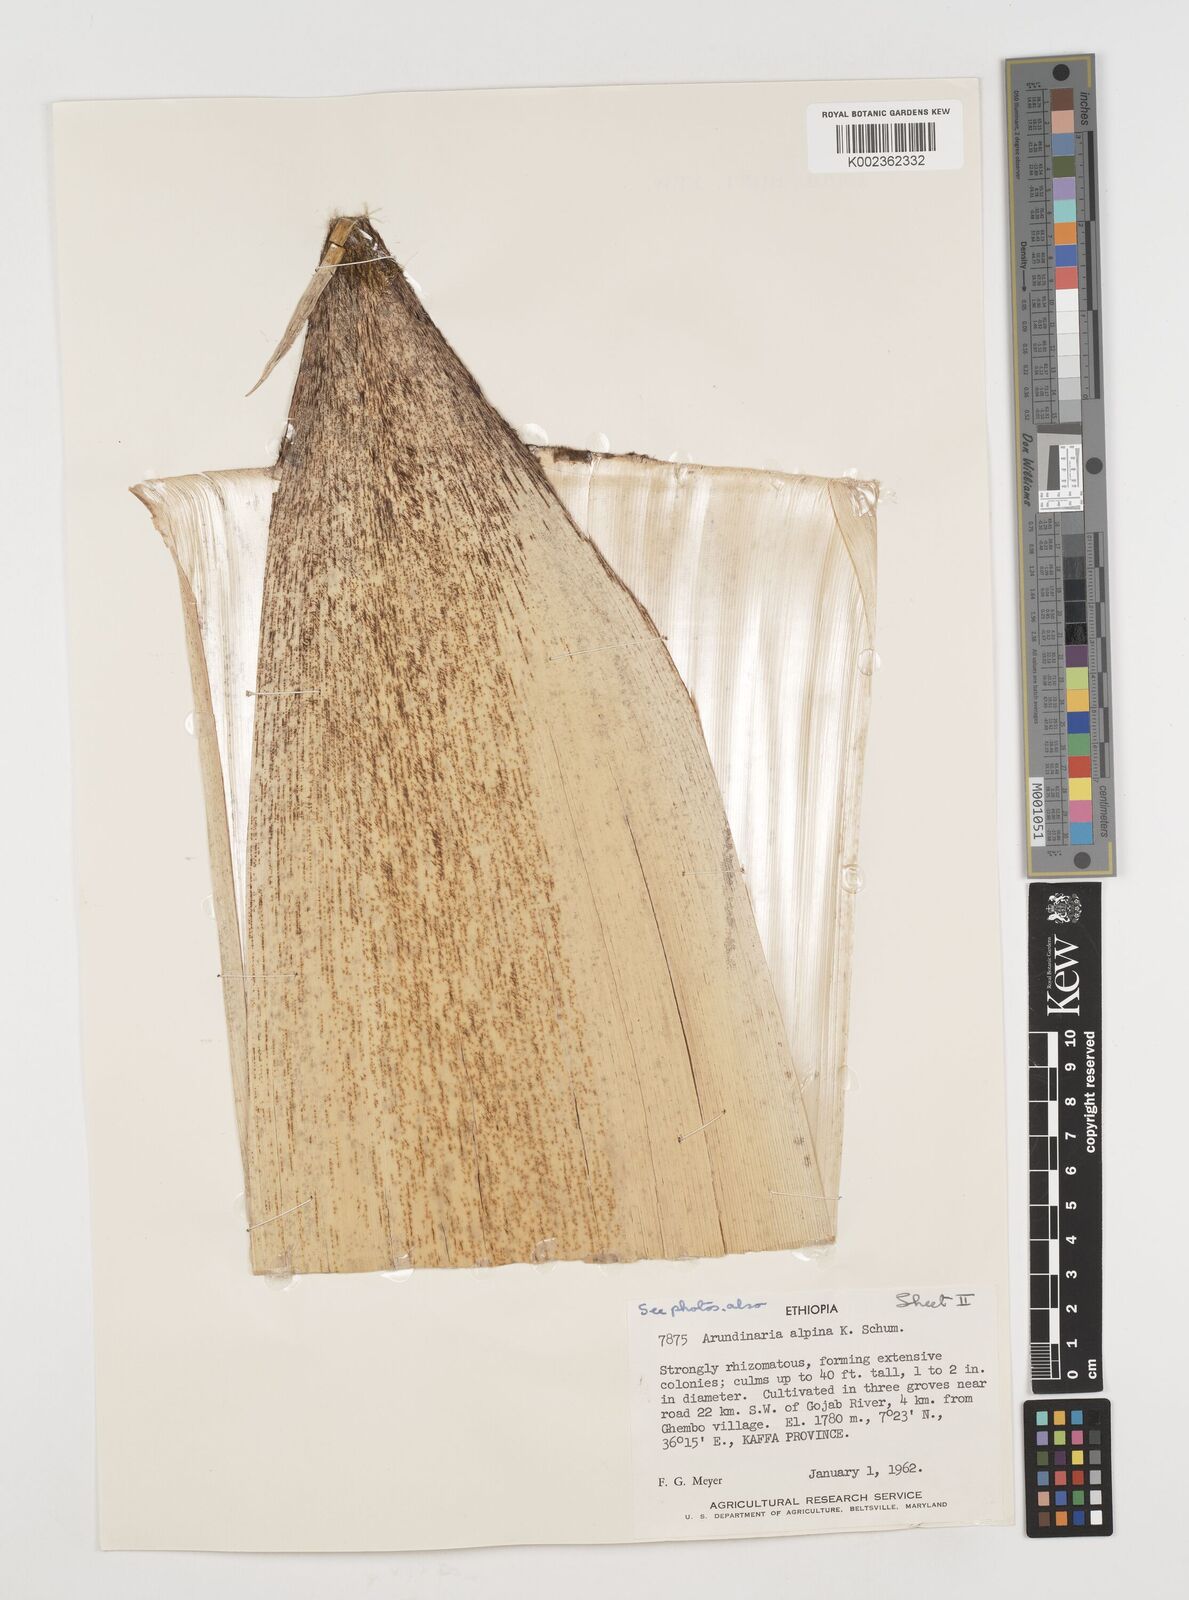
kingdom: Plantae
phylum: Tracheophyta
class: Liliopsida
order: Poales
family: Poaceae
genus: Oldeania
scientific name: Oldeania alpina
